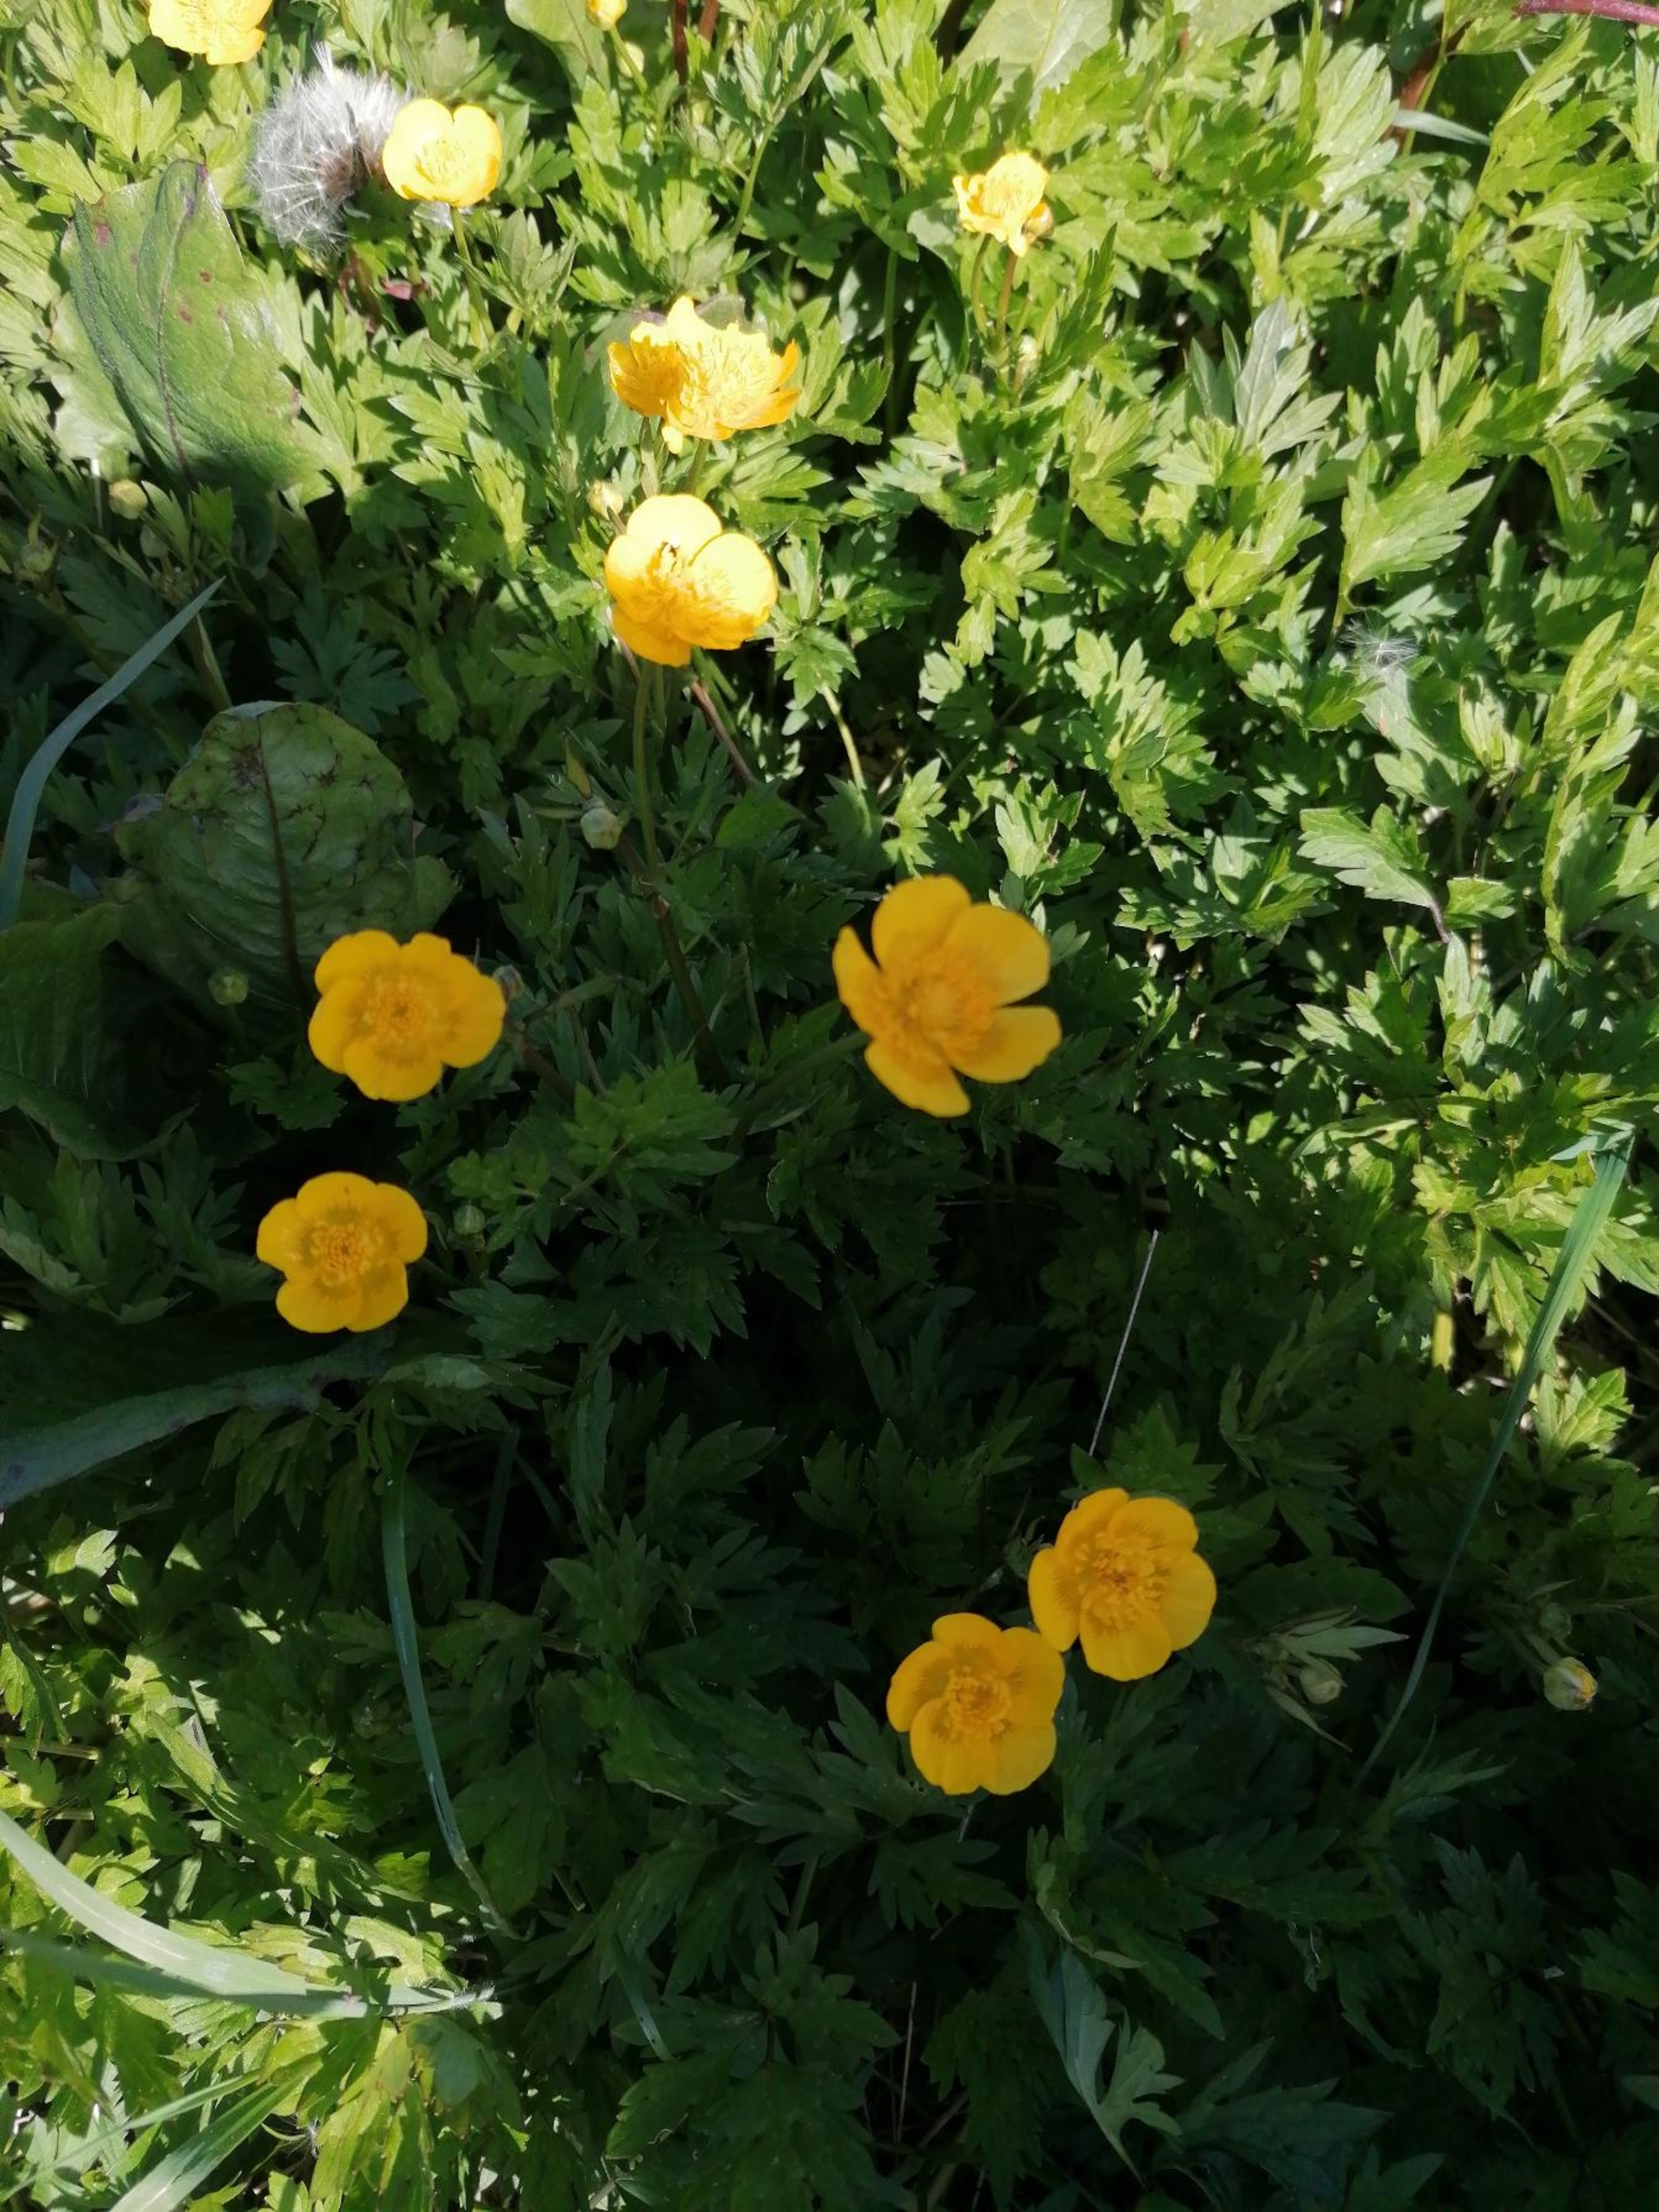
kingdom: Plantae
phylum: Tracheophyta
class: Magnoliopsida
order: Ranunculales
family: Ranunculaceae
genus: Ranunculus
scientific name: Ranunculus repens
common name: Lav ranunkel
